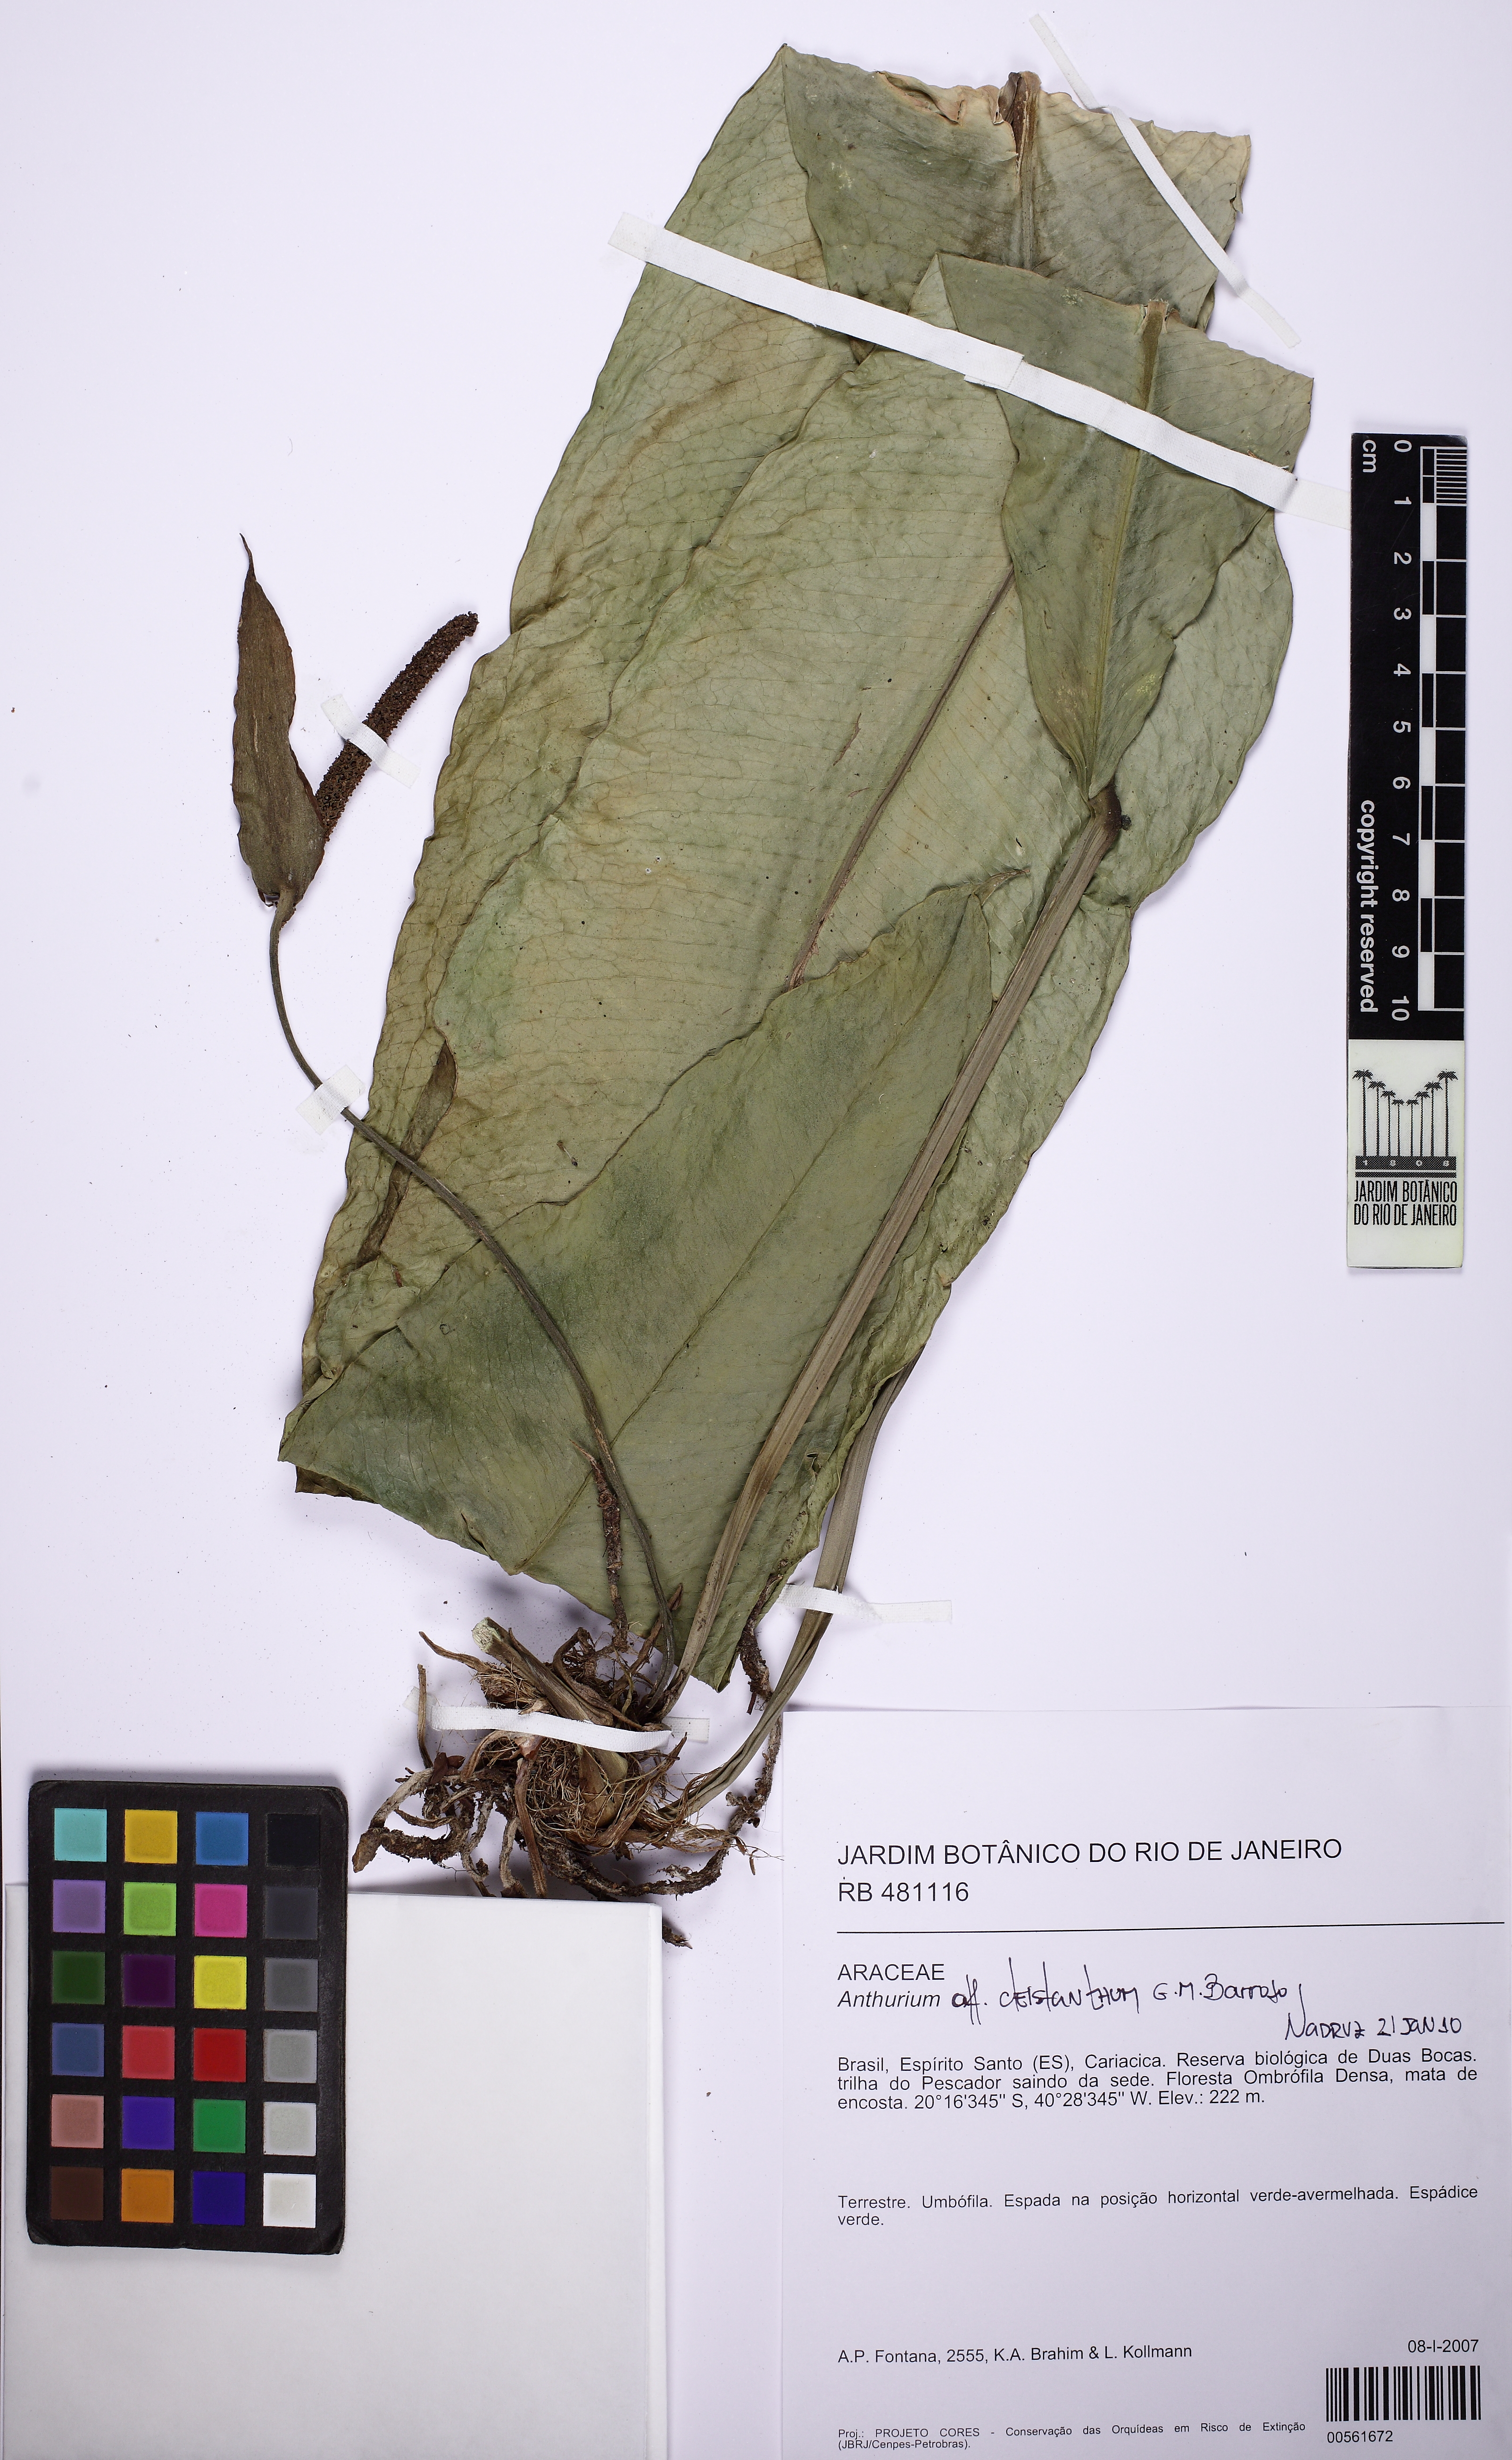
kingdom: Plantae
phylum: Tracheophyta
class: Liliopsida
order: Alismatales
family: Araceae
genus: Anthurium
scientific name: Anthurium cleistanthum
